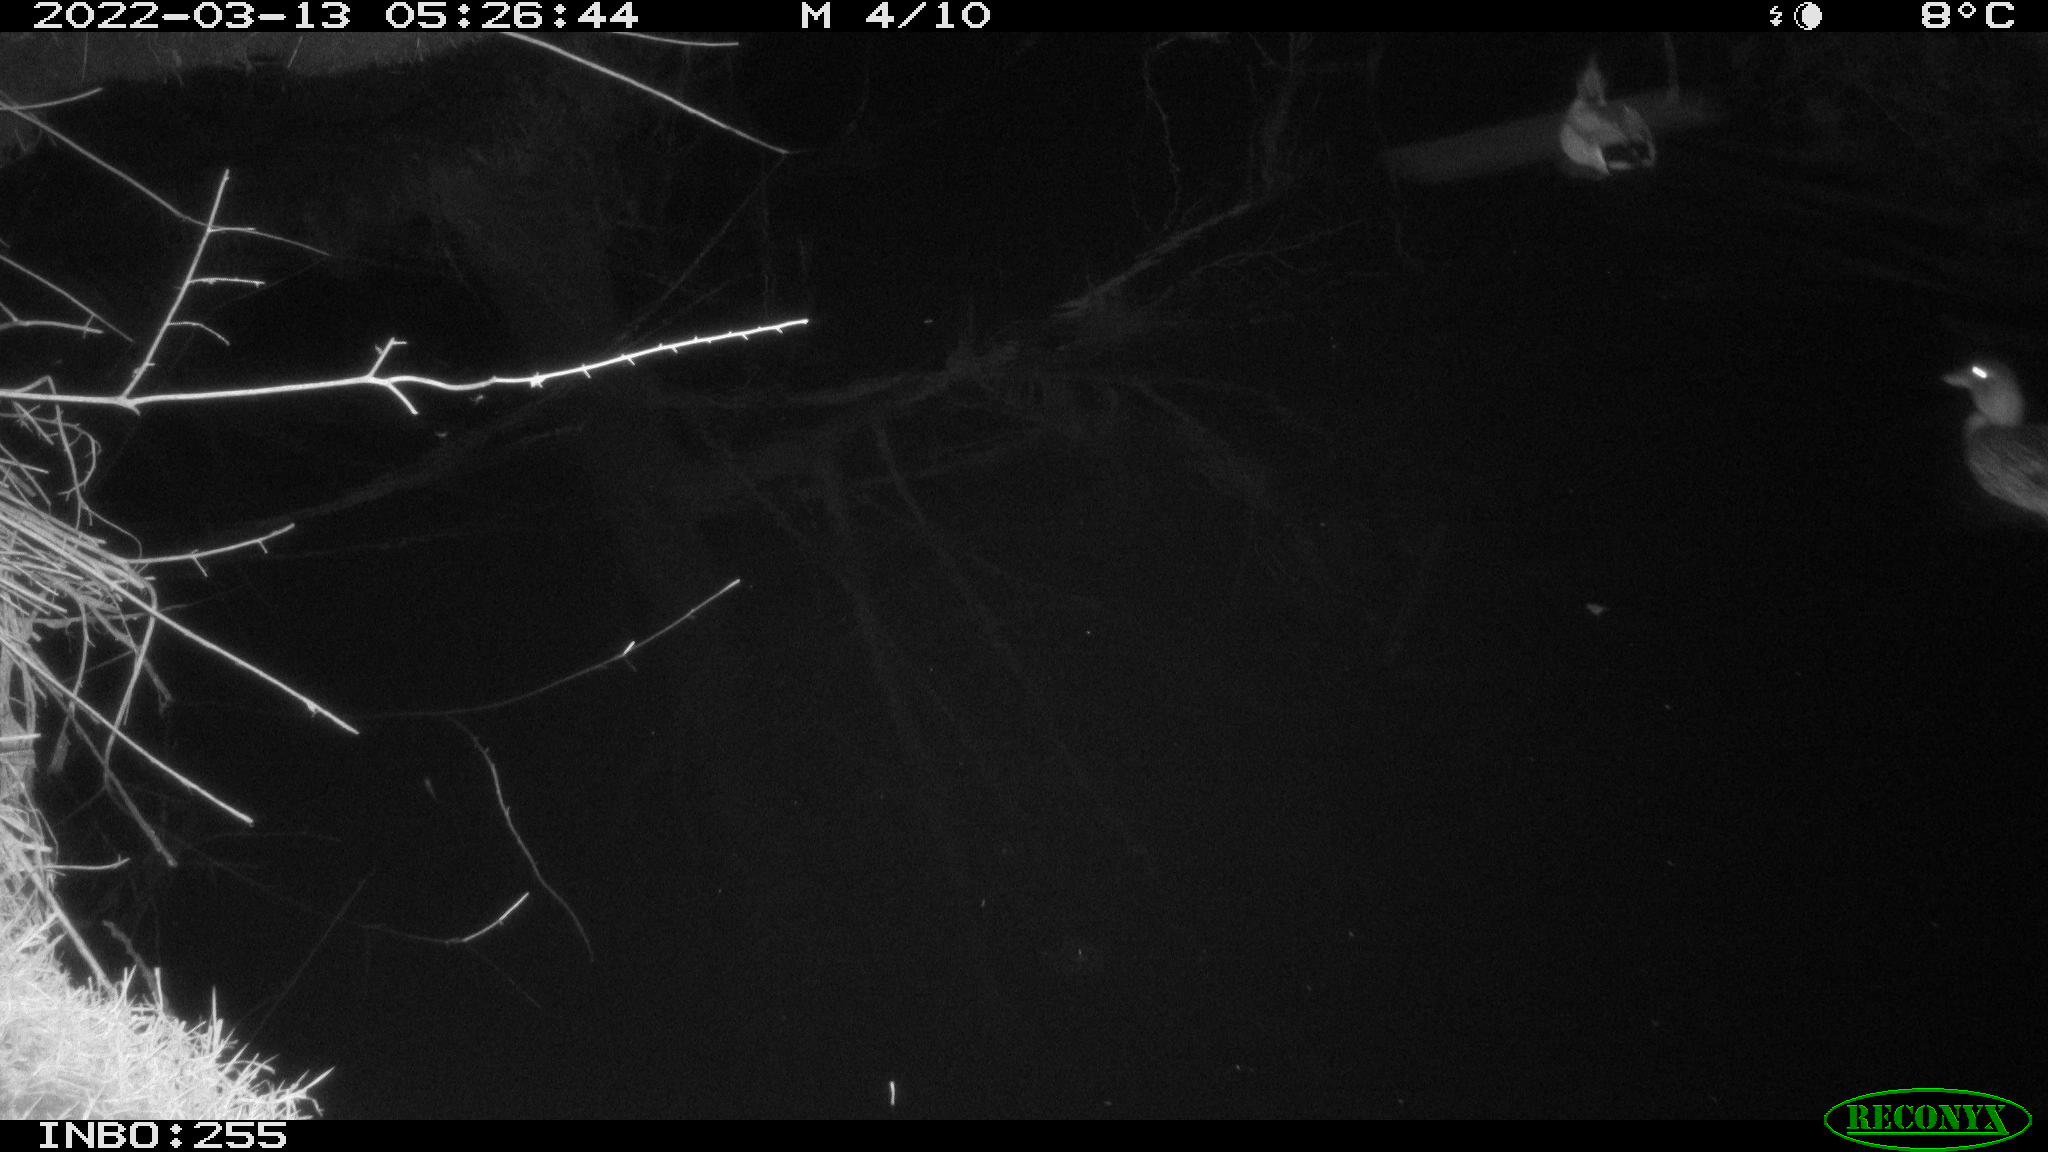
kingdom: Animalia
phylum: Chordata
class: Aves
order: Anseriformes
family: Anatidae
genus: Anas
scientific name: Anas platyrhynchos
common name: Mallard
